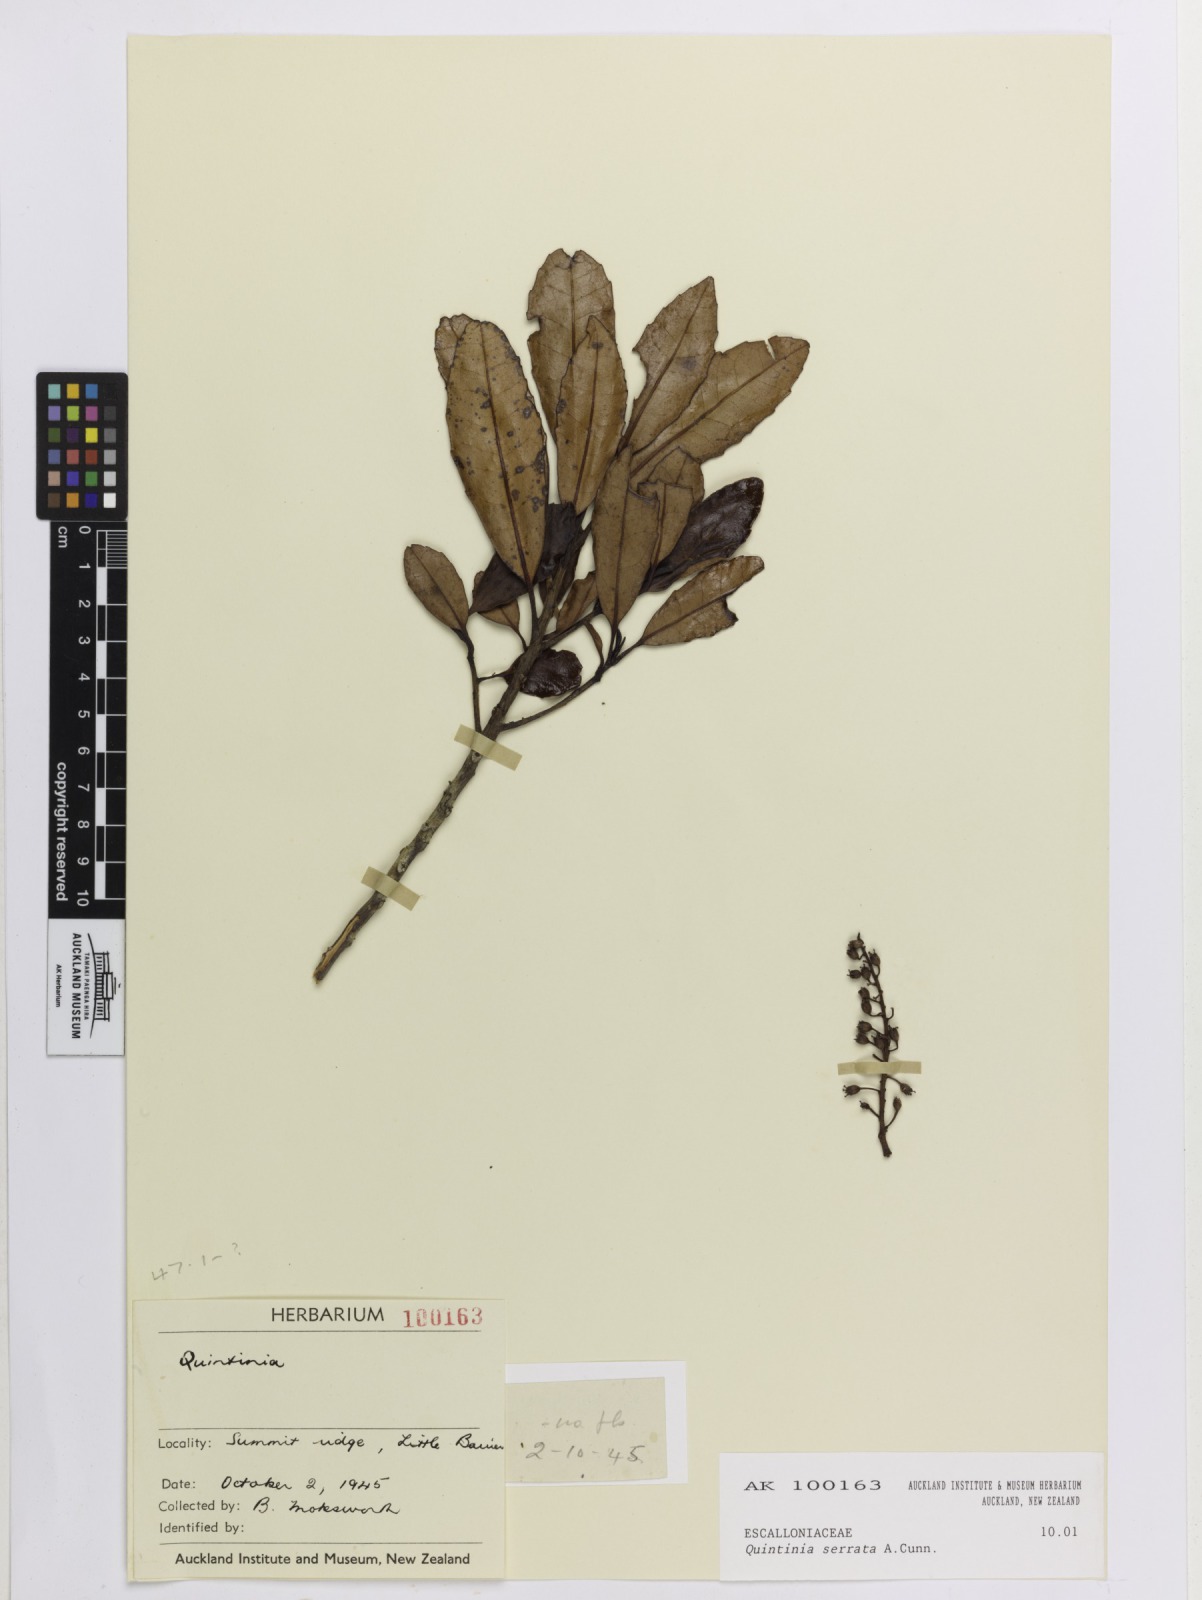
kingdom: Plantae
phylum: Tracheophyta
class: Magnoliopsida
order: Paracryphiales
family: Paracryphiaceae
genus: Quintinia
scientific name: Quintinia serrata
